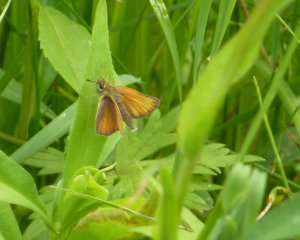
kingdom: Animalia
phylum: Arthropoda
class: Insecta
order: Lepidoptera
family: Hesperiidae
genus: Thymelicus
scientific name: Thymelicus lineola
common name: European Skipper
